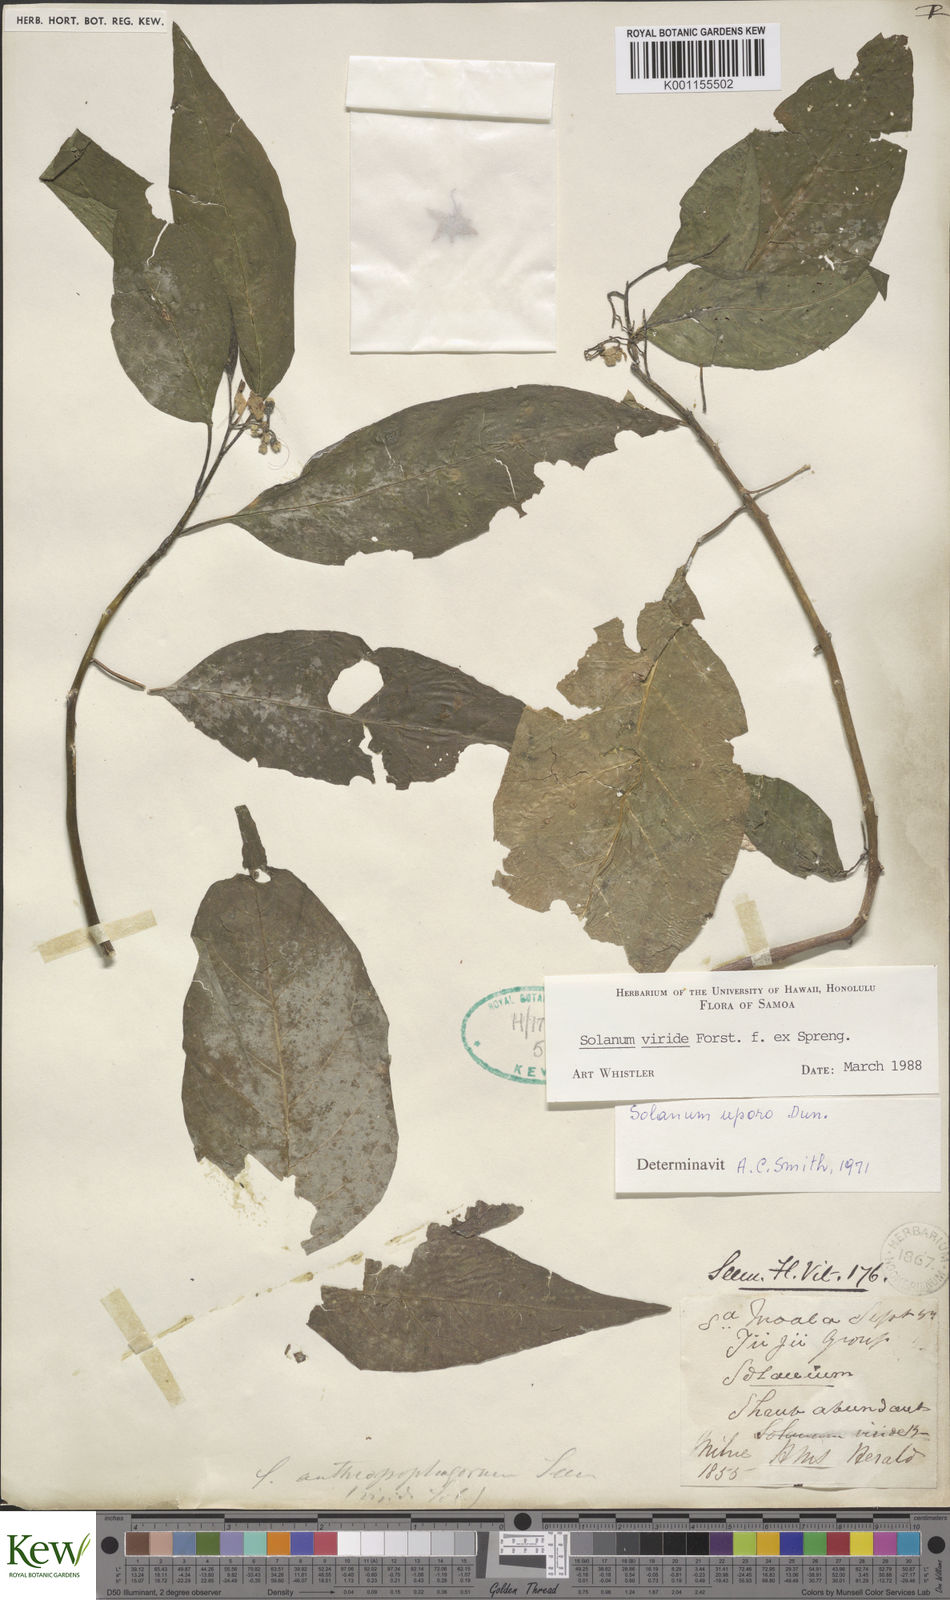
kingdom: Plantae
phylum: Tracheophyta
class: Magnoliopsida
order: Solanales
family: Solanaceae
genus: Solanum
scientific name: Solanum
